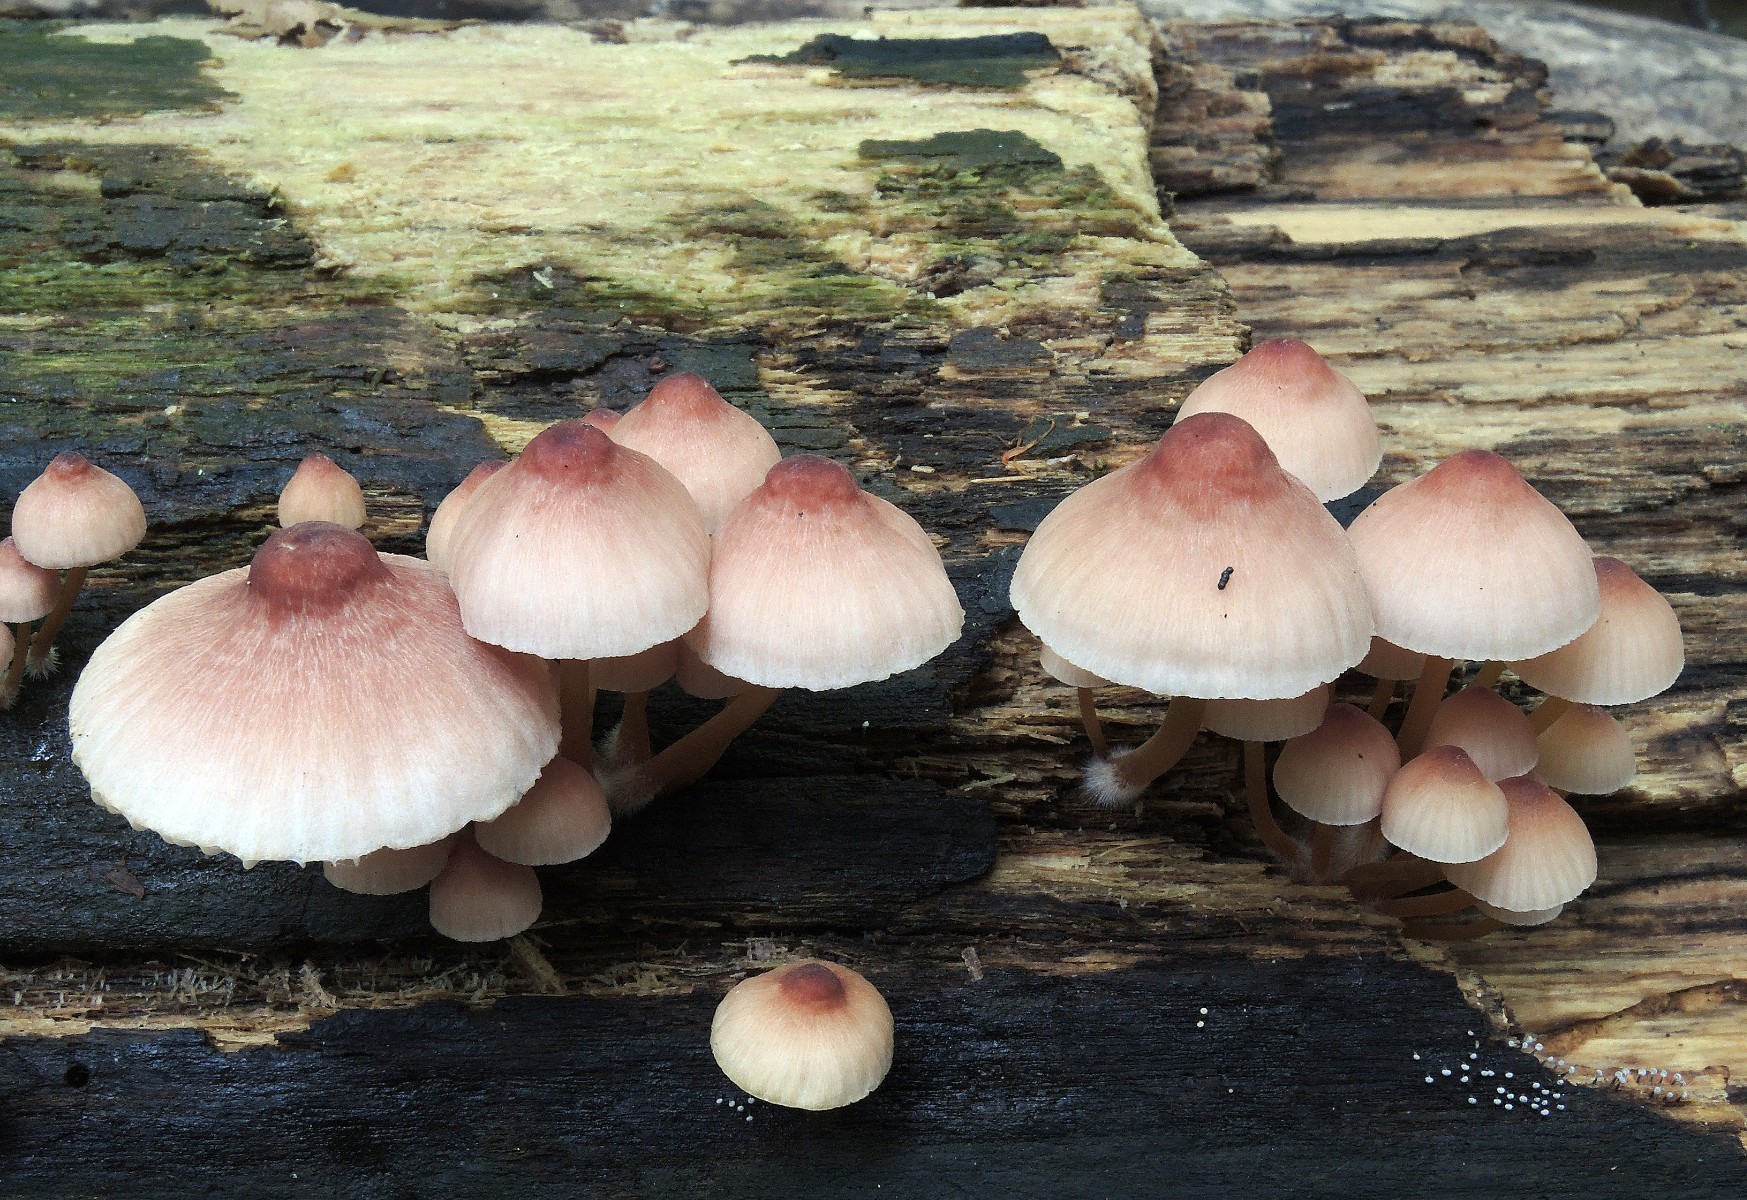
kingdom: Fungi
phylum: Basidiomycota
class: Agaricomycetes
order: Agaricales
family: Mycenaceae
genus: Mycena
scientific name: Mycena renati
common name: smuk huesvamp
